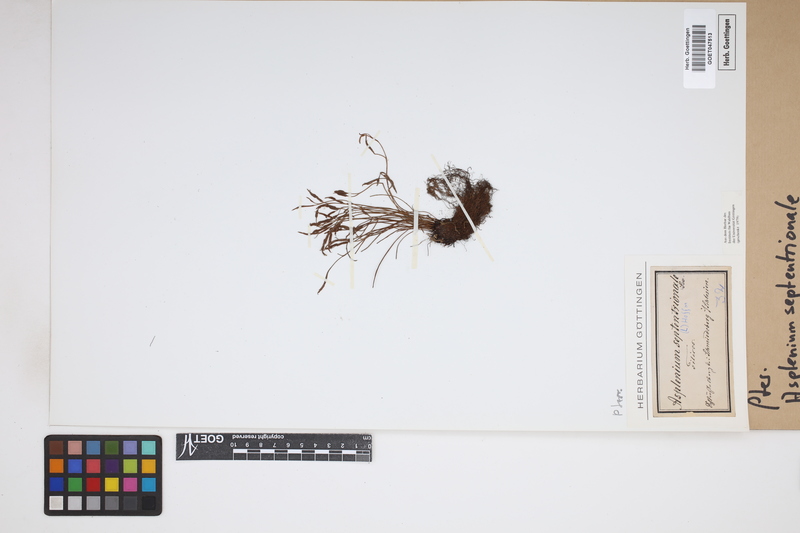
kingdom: Plantae
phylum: Tracheophyta
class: Polypodiopsida
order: Polypodiales
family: Aspleniaceae
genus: Asplenium
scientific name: Asplenium septentrionale
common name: Forked spleenwort
